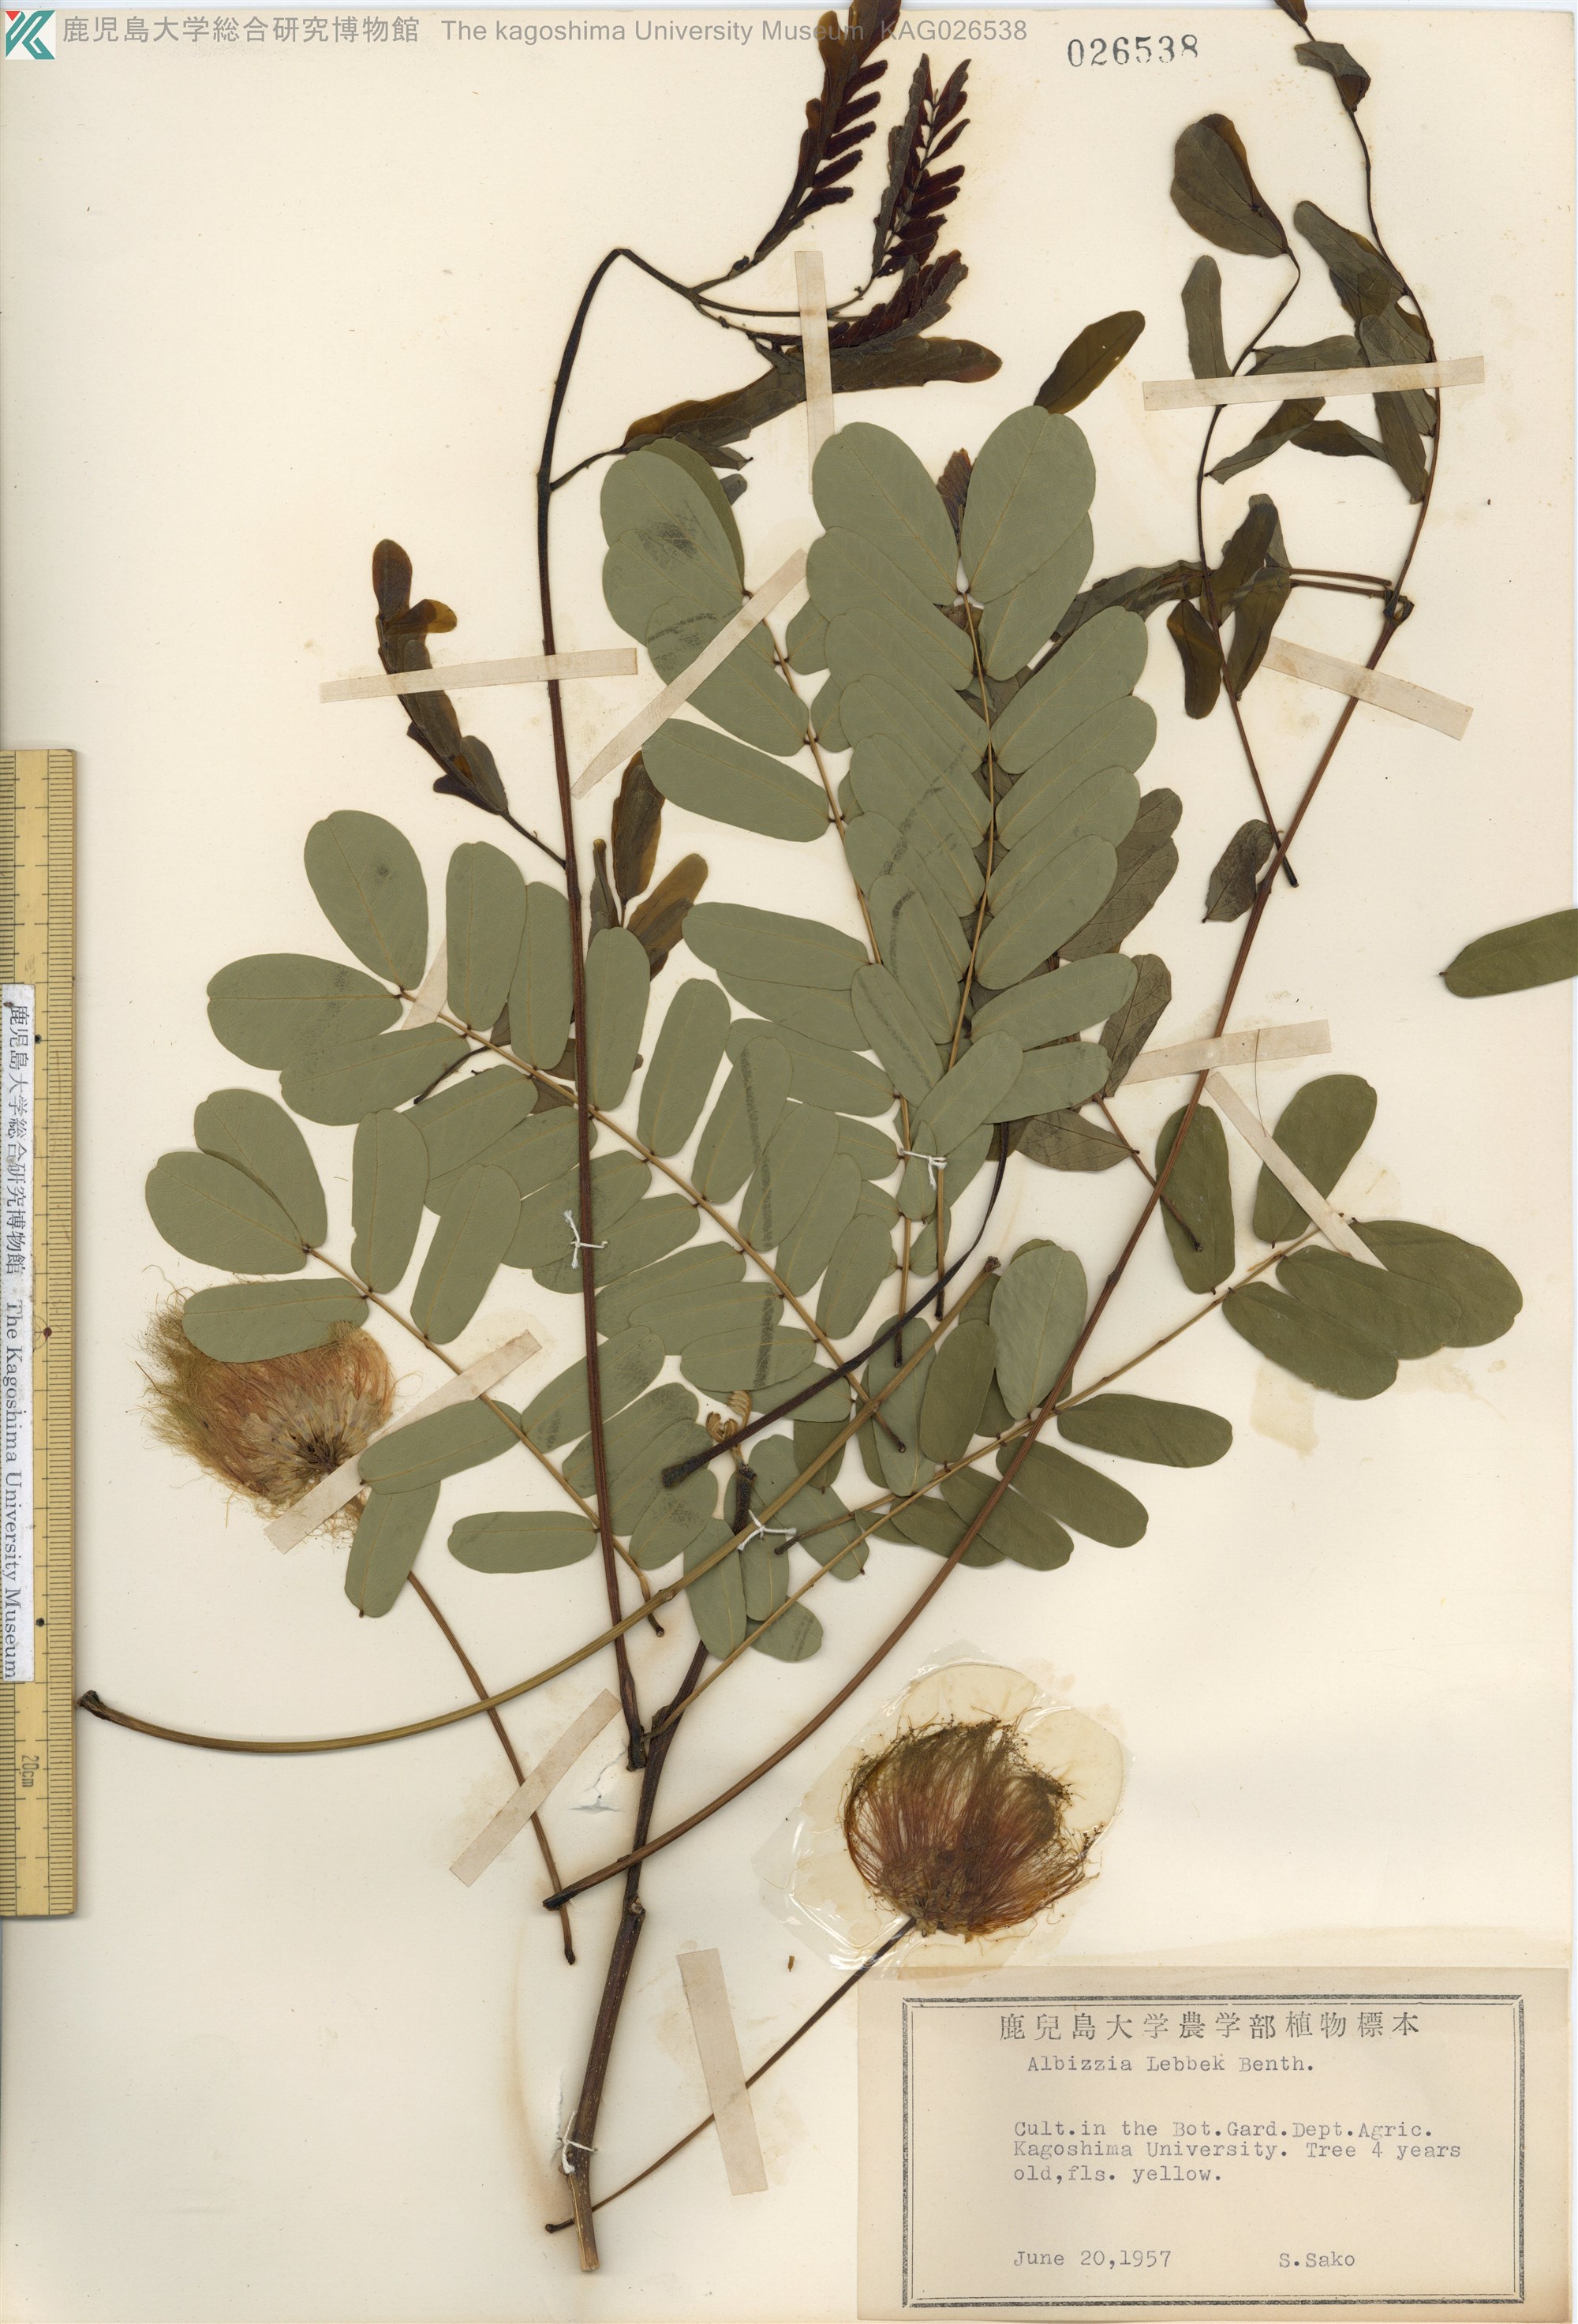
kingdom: Plantae
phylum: Tracheophyta
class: Magnoliopsida
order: Fabales
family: Fabaceae
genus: Albizia
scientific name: Albizia lebbeck
